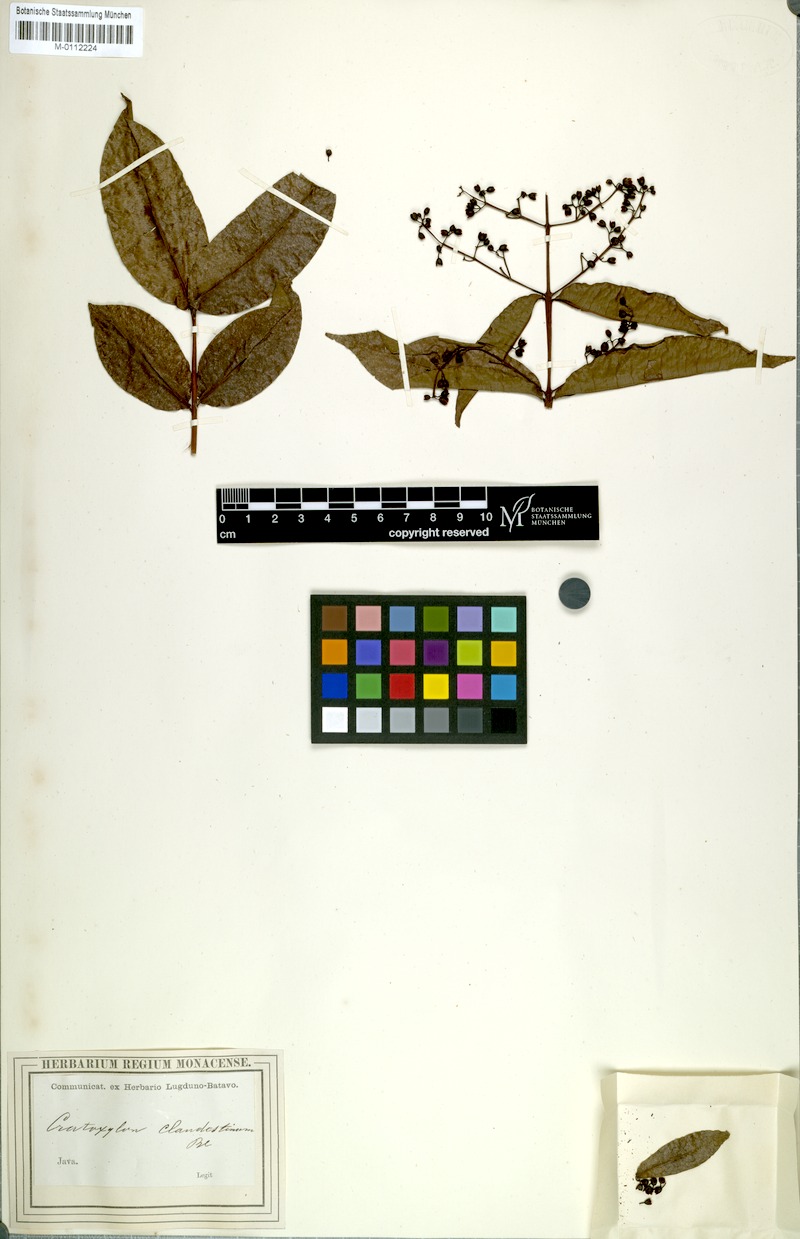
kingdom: Plantae
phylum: Tracheophyta
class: Magnoliopsida
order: Malpighiales
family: Hypericaceae
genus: Cratoxylum
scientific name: Cratoxylum sumatranum
